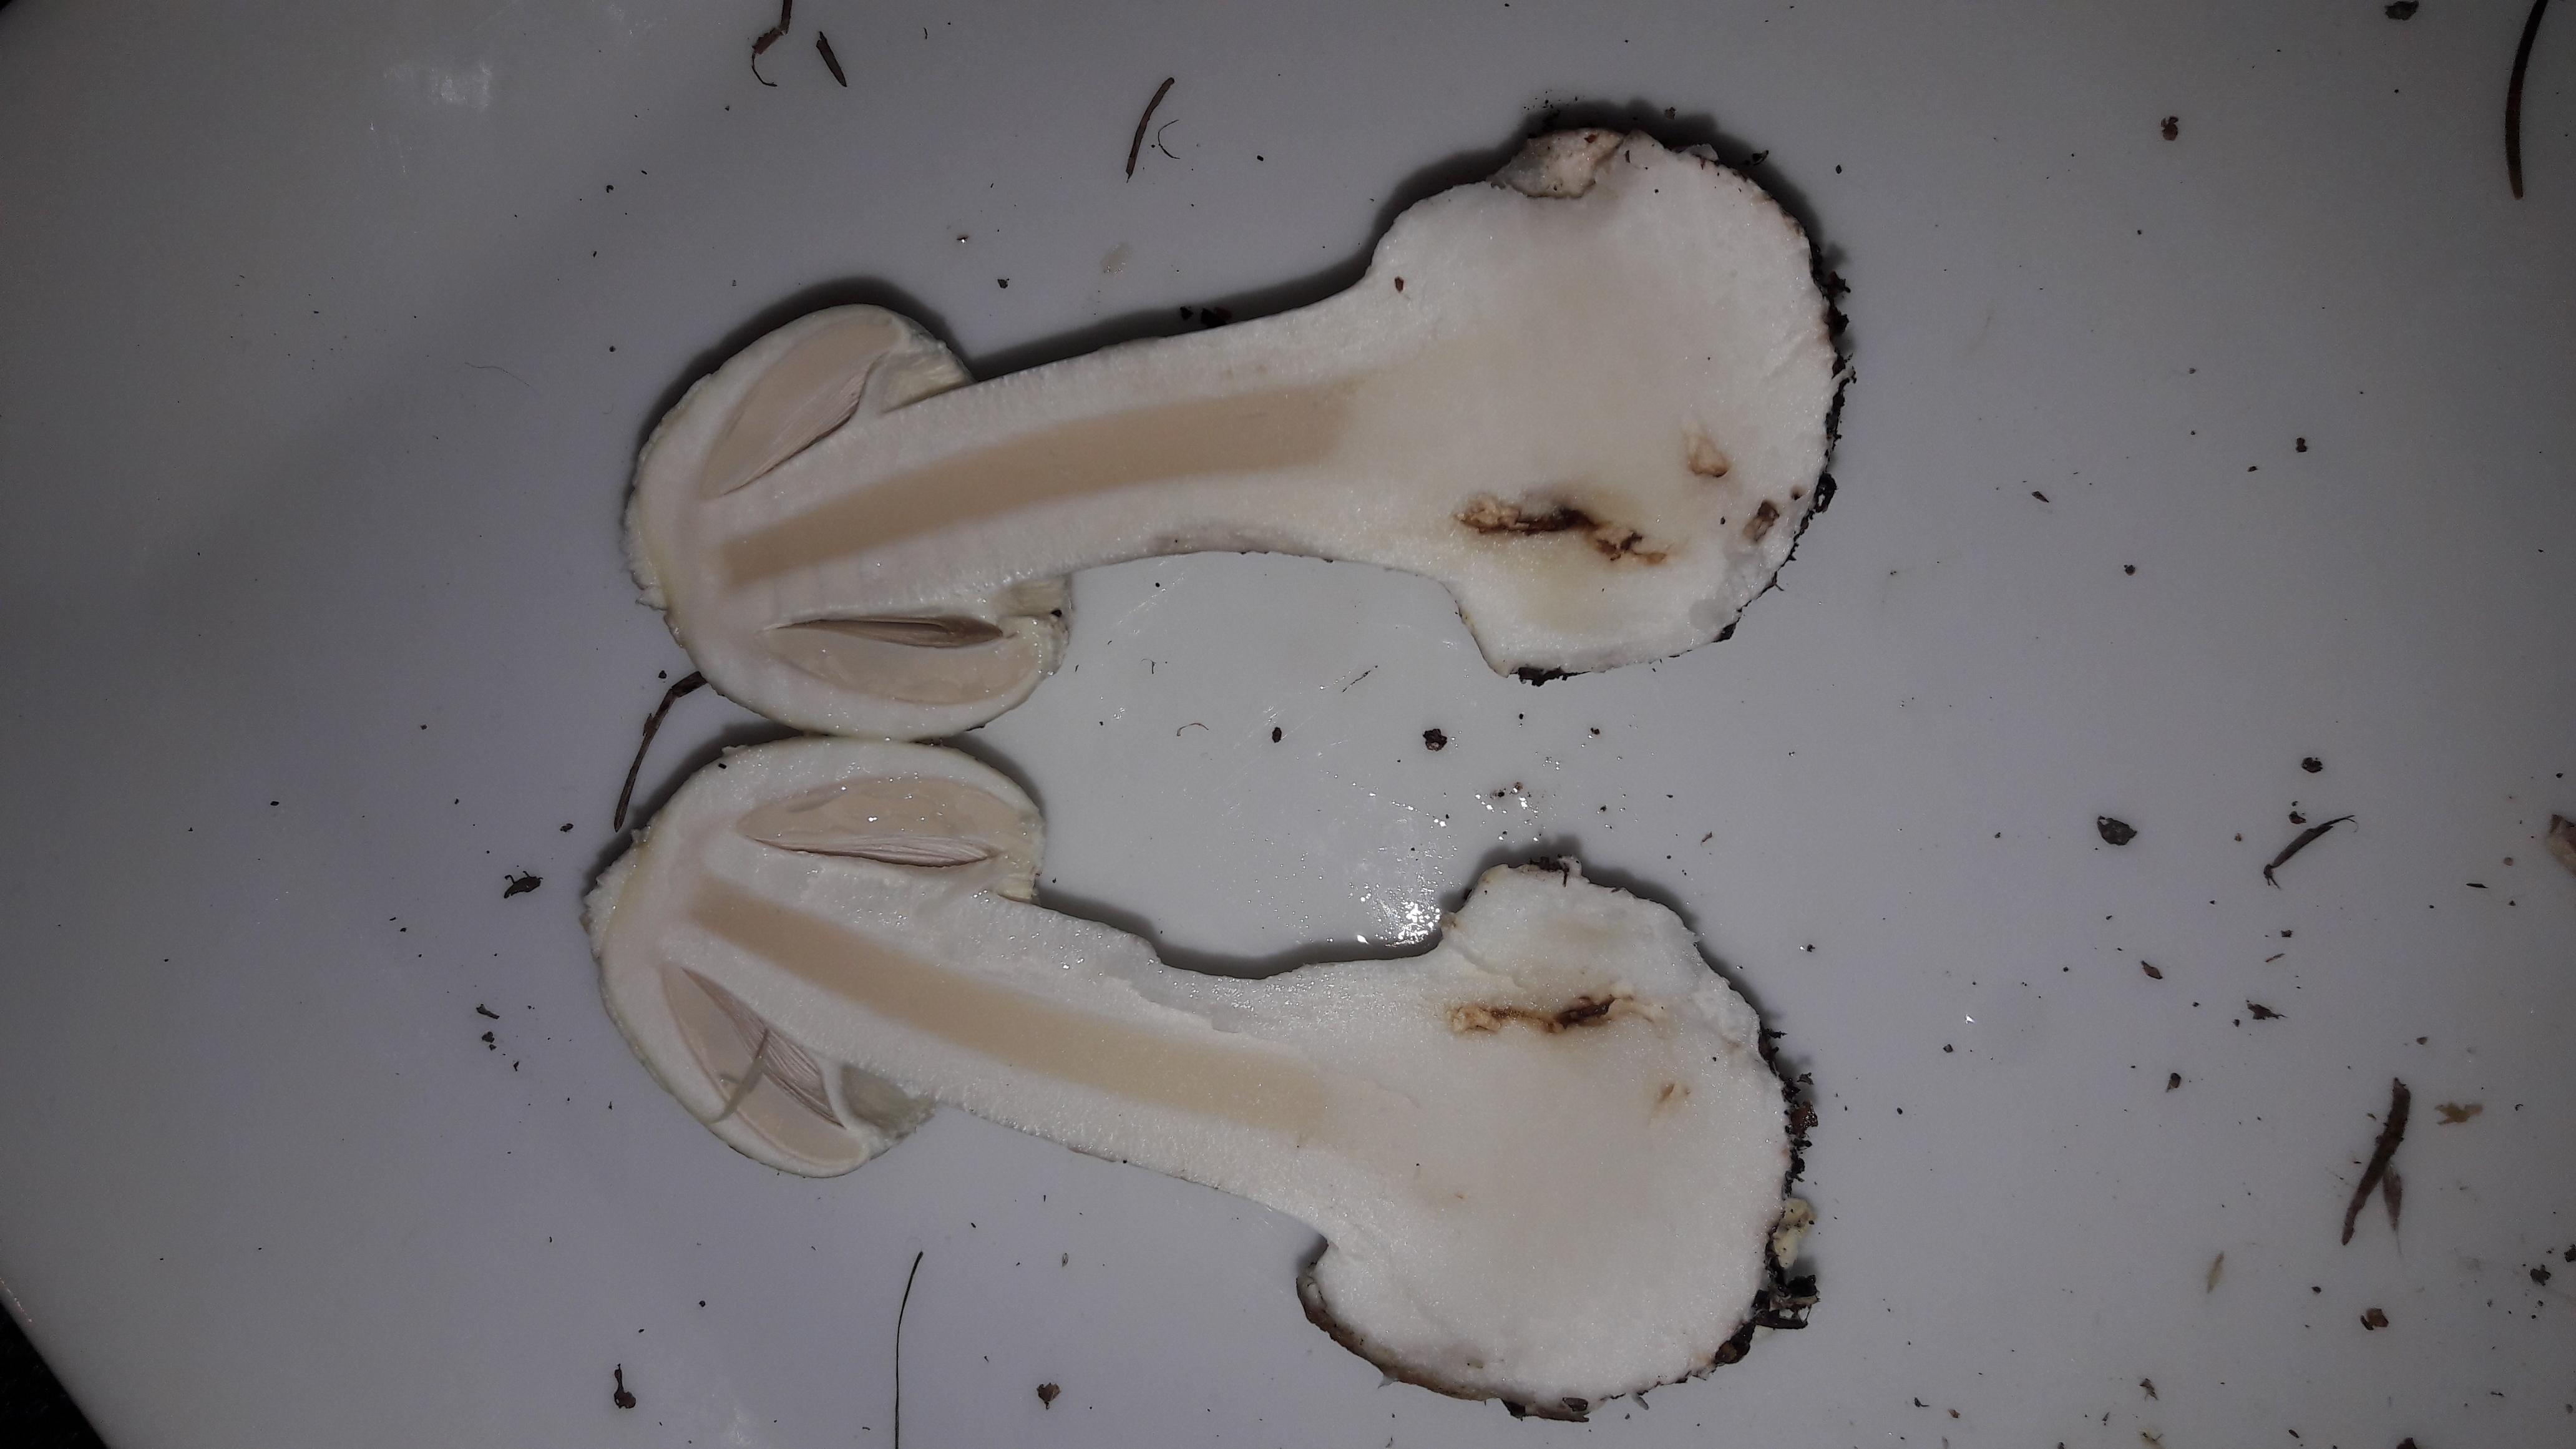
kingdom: Fungi
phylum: Basidiomycota
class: Agaricomycetes
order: Agaricales
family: Amanitaceae
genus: Amanita
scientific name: Amanita citrina
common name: kugleknoldet fluesvamp
